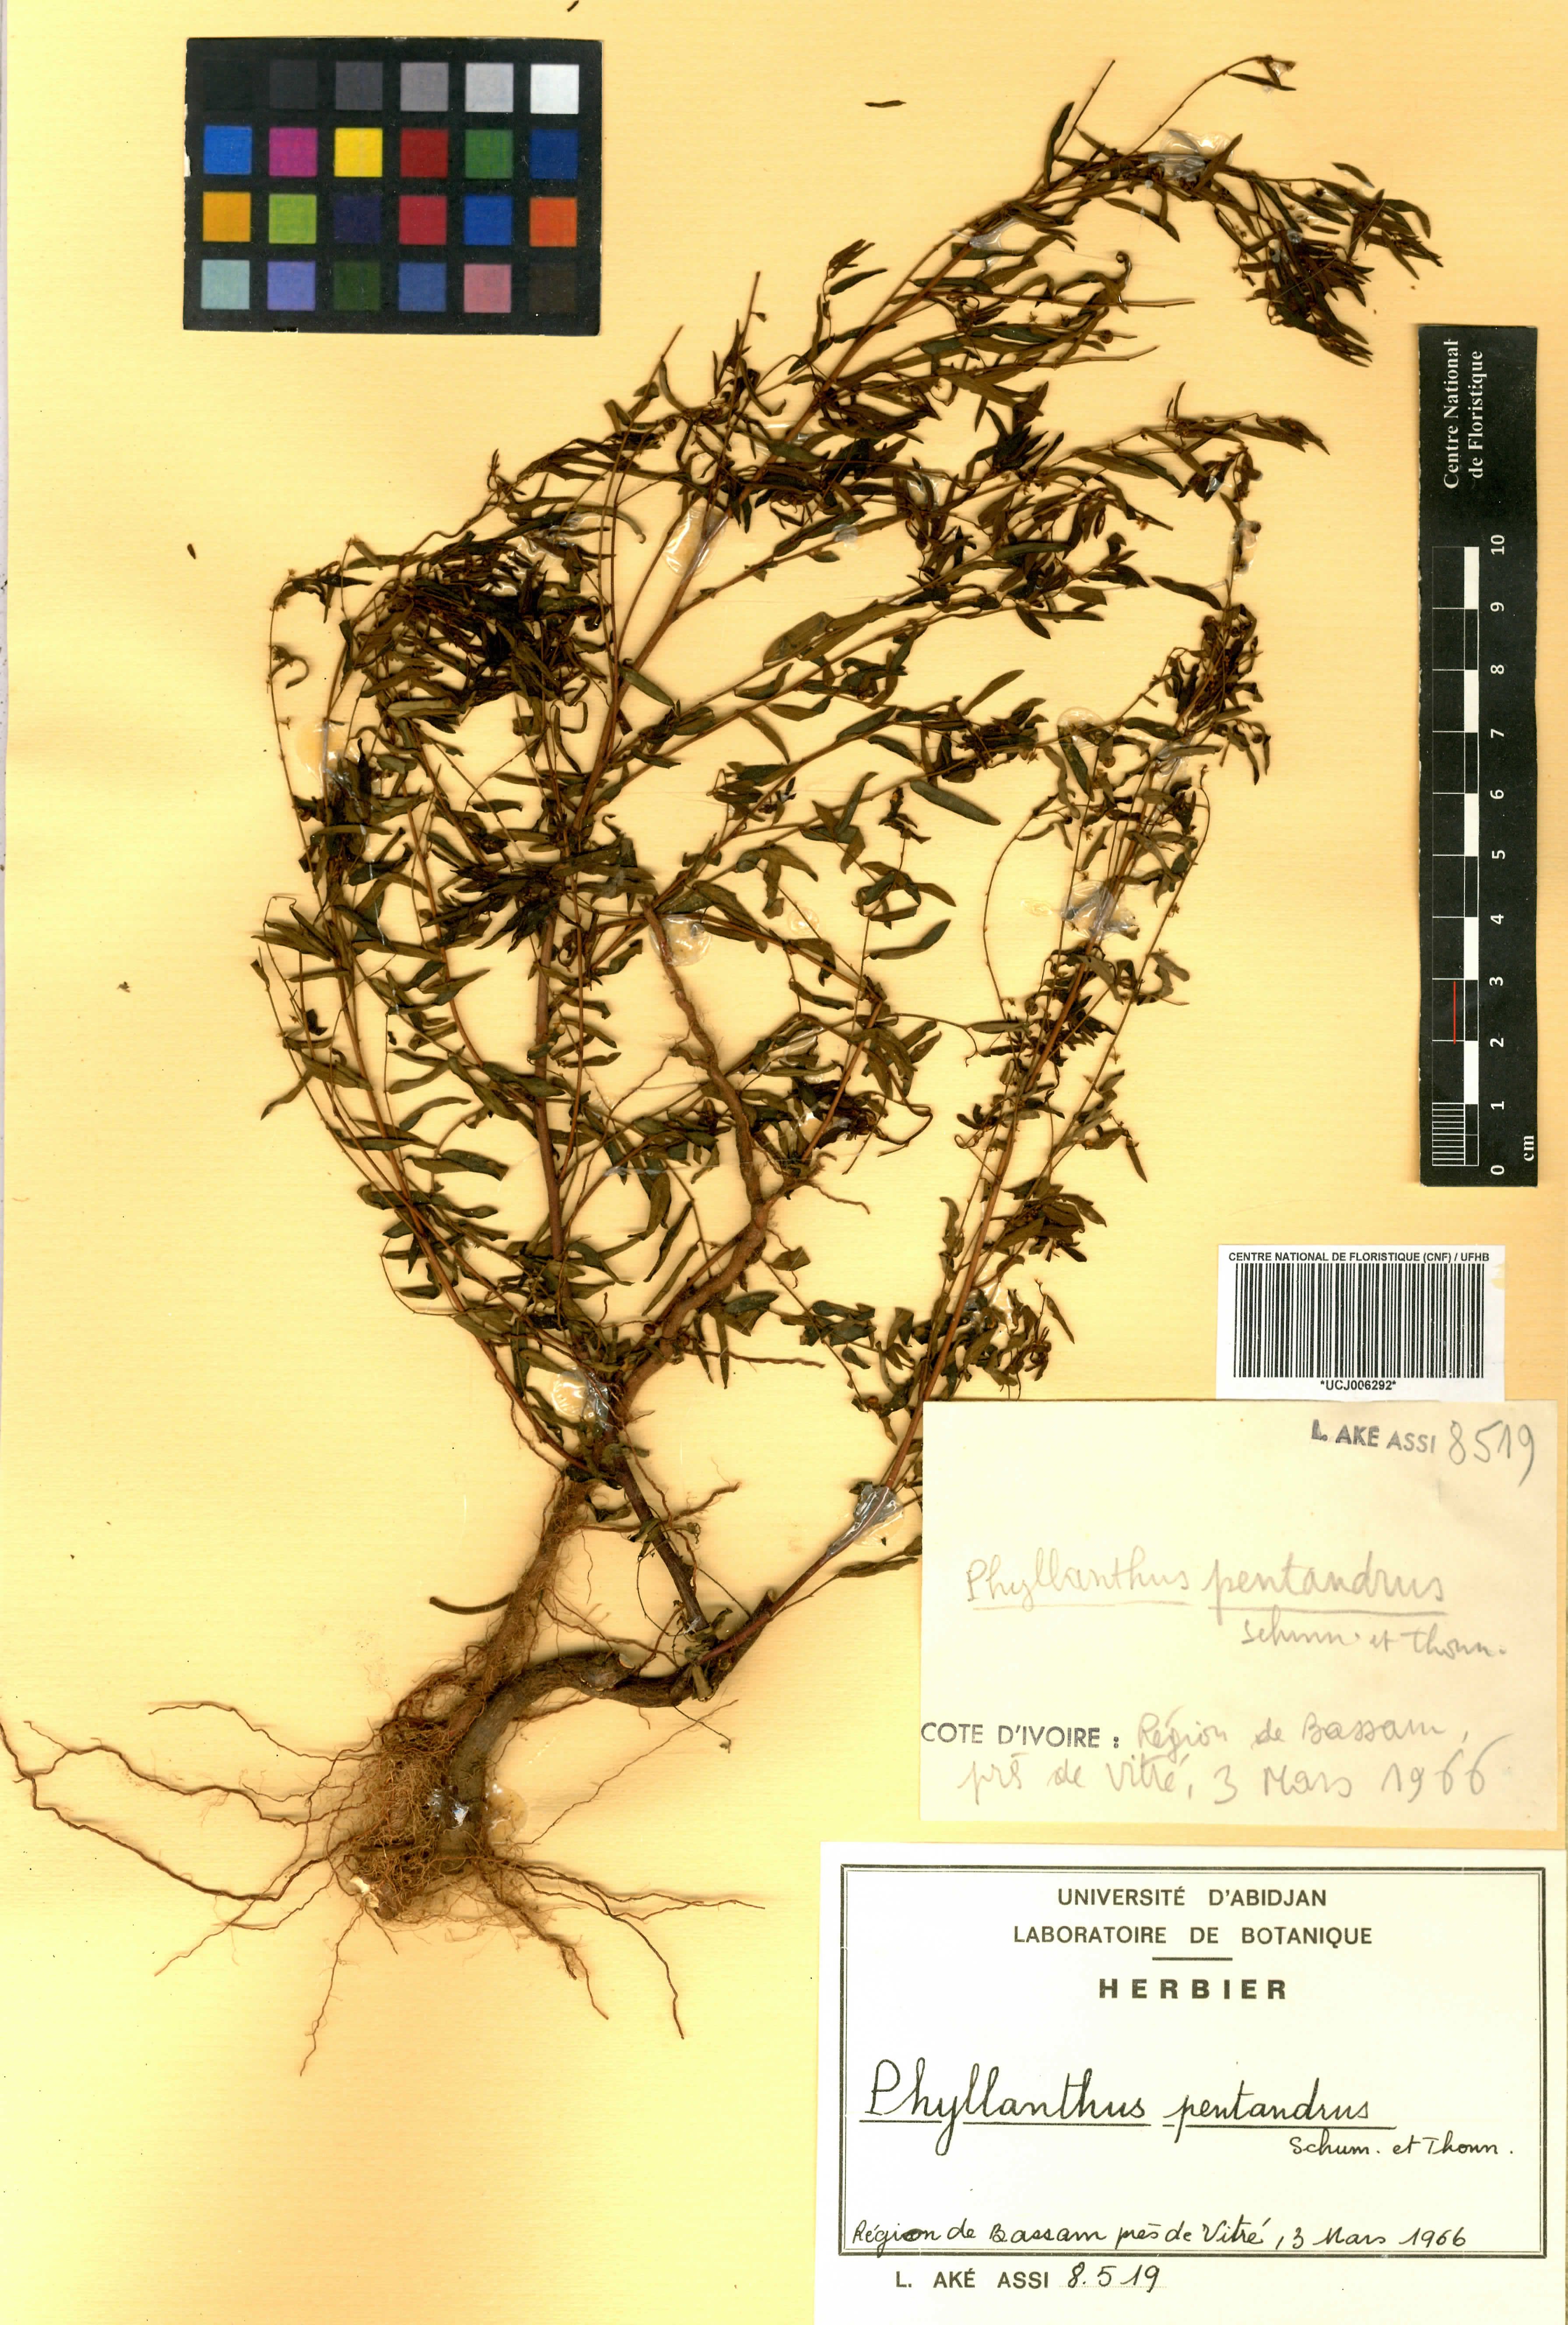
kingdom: Plantae
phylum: Tracheophyta
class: Magnoliopsida
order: Malpighiales
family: Phyllanthaceae
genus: Phyllanthus
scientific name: Phyllanthus pentandrus
